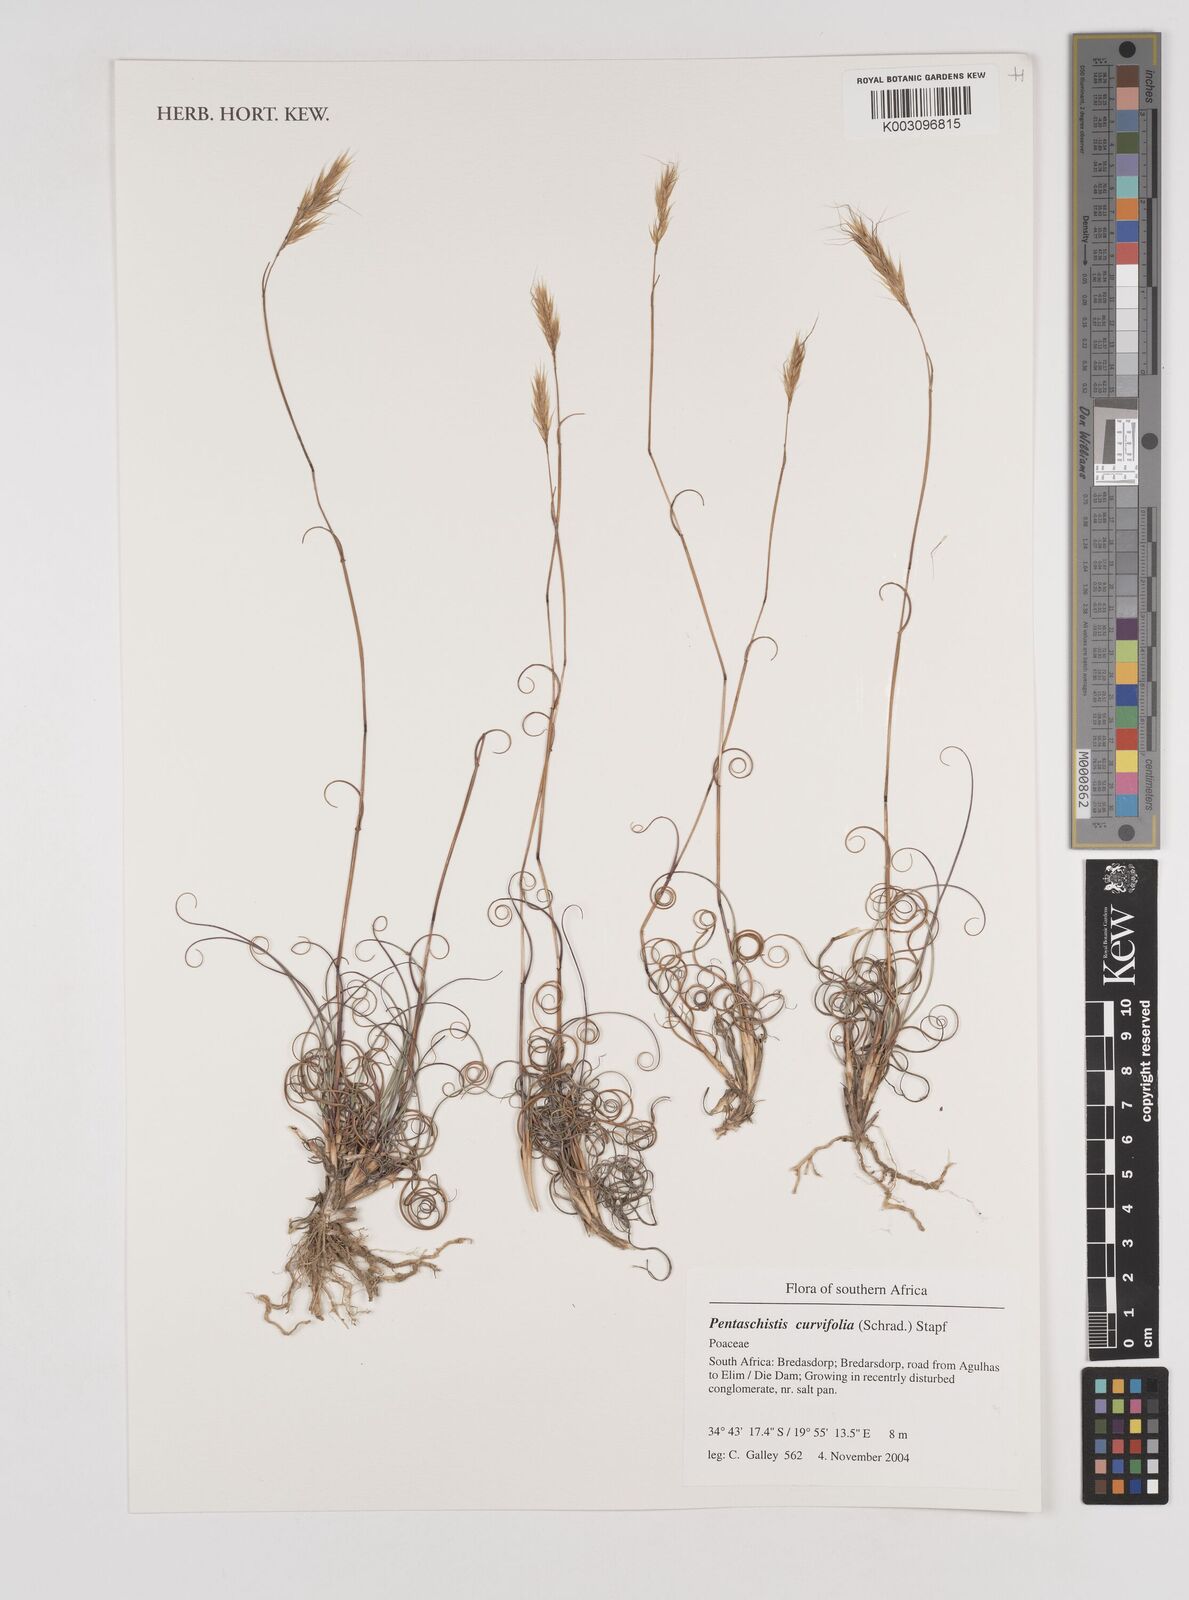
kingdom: Plantae
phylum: Tracheophyta
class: Liliopsida
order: Poales
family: Poaceae
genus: Pentameris
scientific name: Pentameris curvifolia
